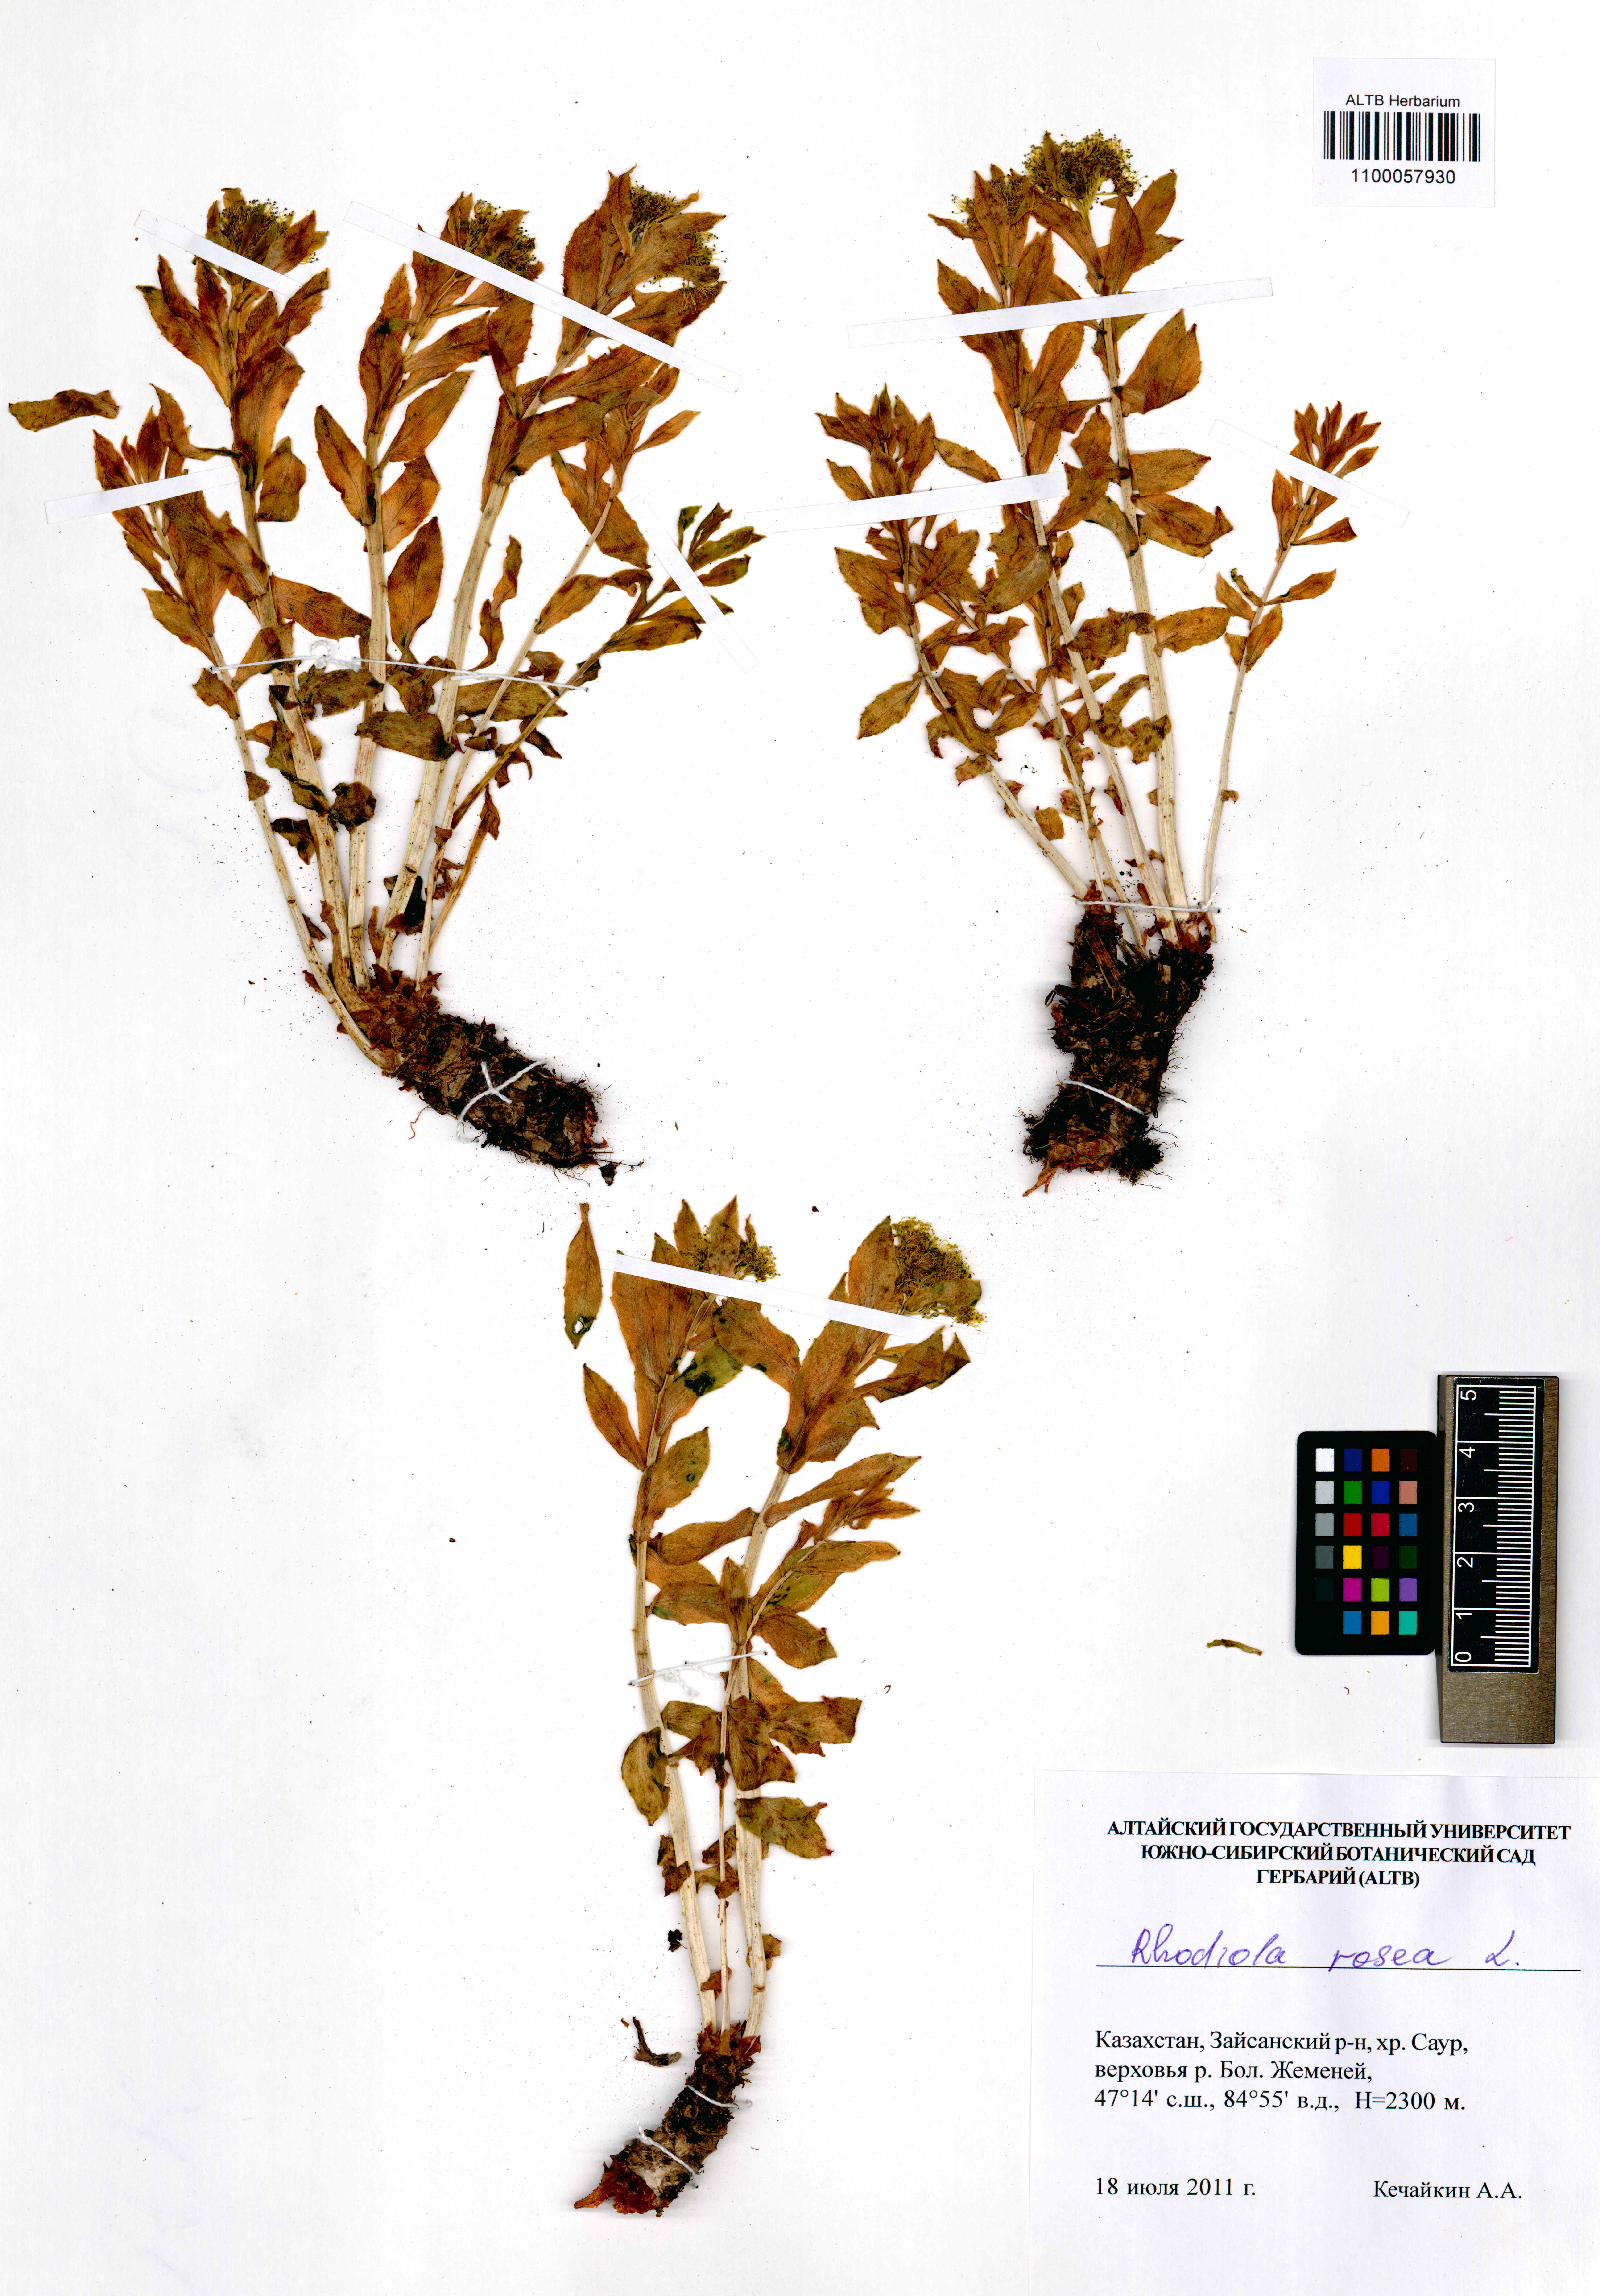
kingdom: Plantae
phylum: Tracheophyta
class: Magnoliopsida
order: Saxifragales
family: Crassulaceae
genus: Rhodiola
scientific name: Rhodiola rosea
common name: Roseroot
